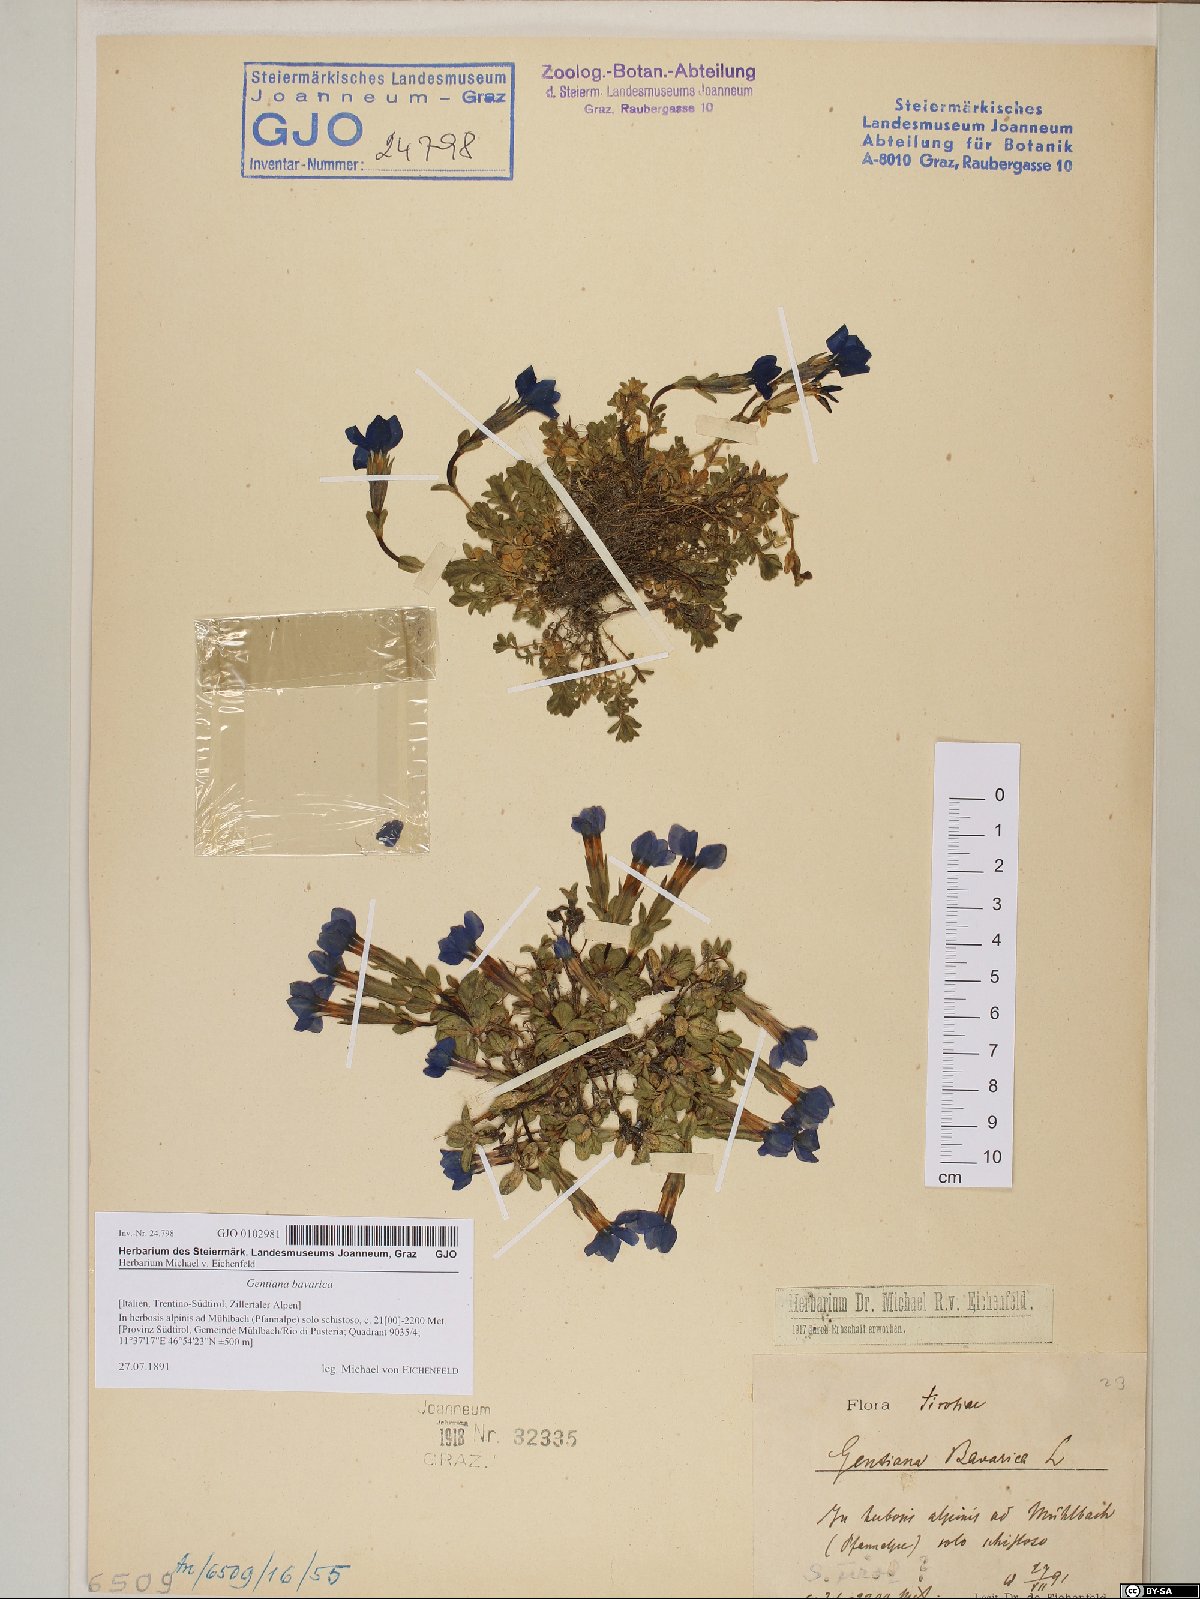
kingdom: Plantae
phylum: Tracheophyta
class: Magnoliopsida
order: Gentianales
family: Gentianaceae
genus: Gentiana
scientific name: Gentiana bavarica
